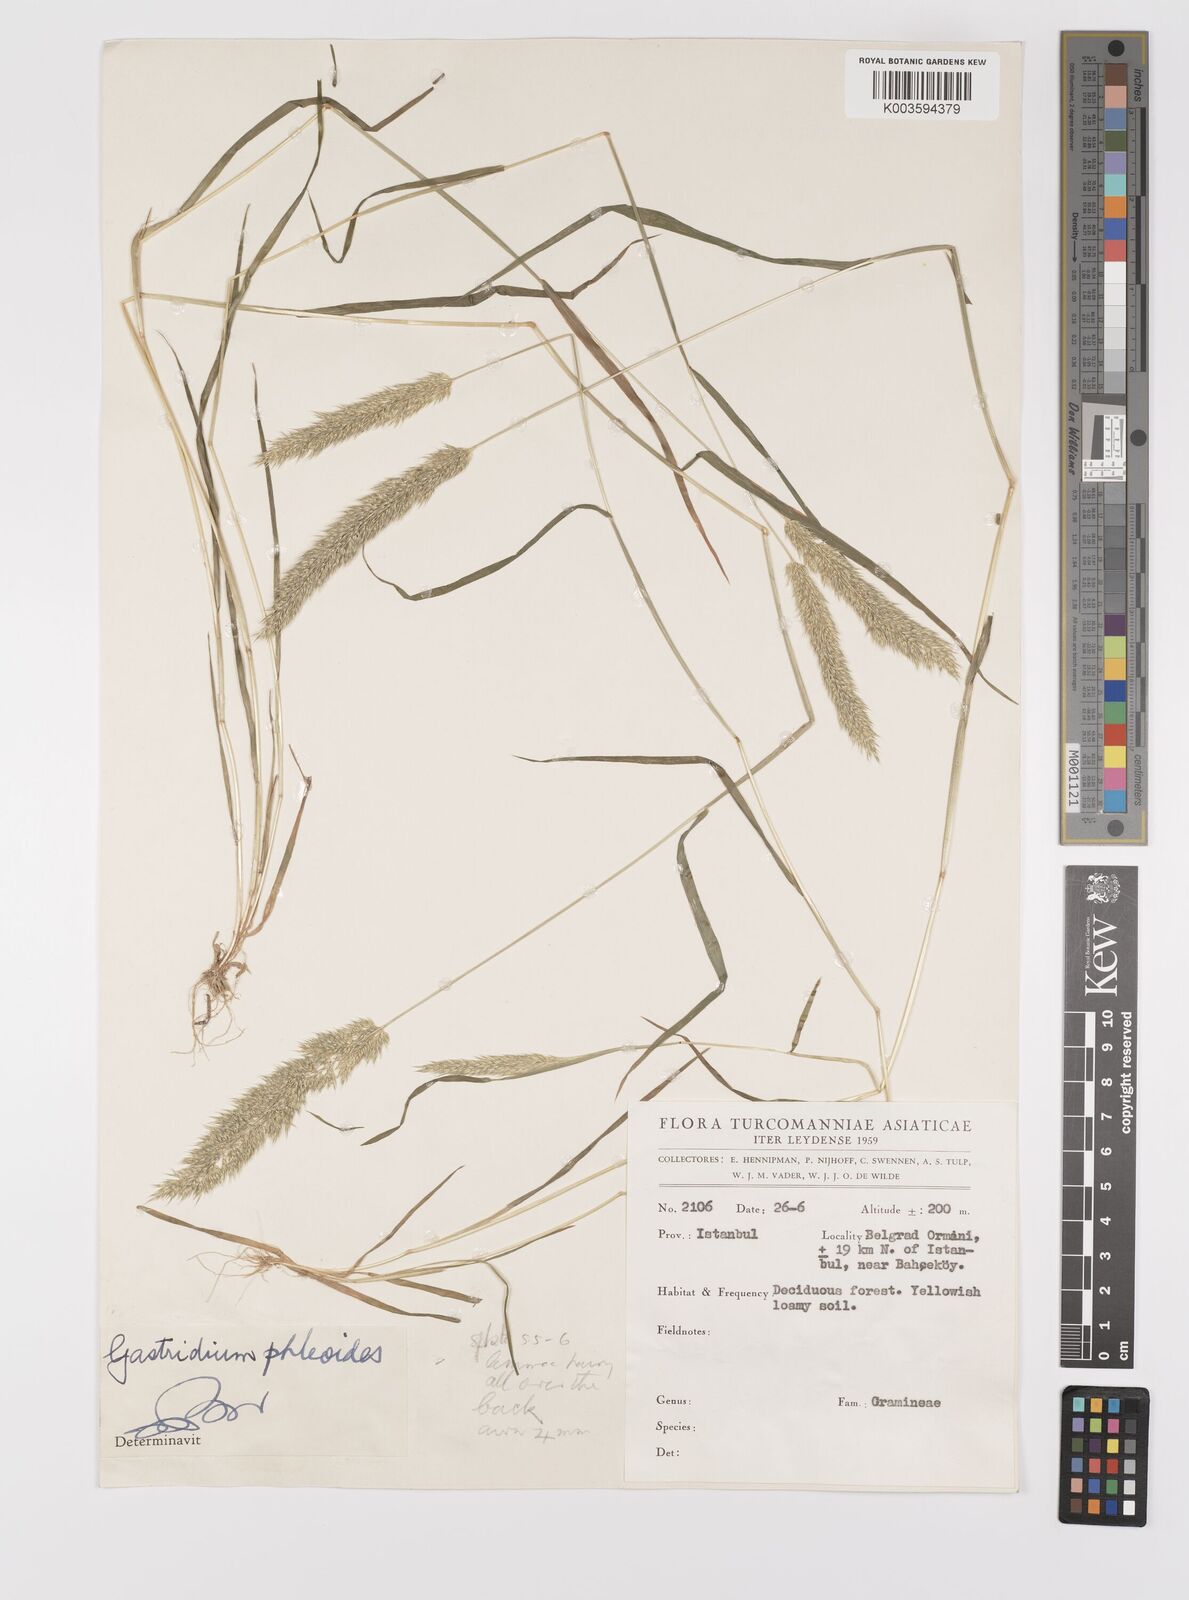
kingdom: Plantae
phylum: Tracheophyta
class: Liliopsida
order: Poales
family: Poaceae
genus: Gastridium
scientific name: Gastridium phleoides
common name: Nit grass
